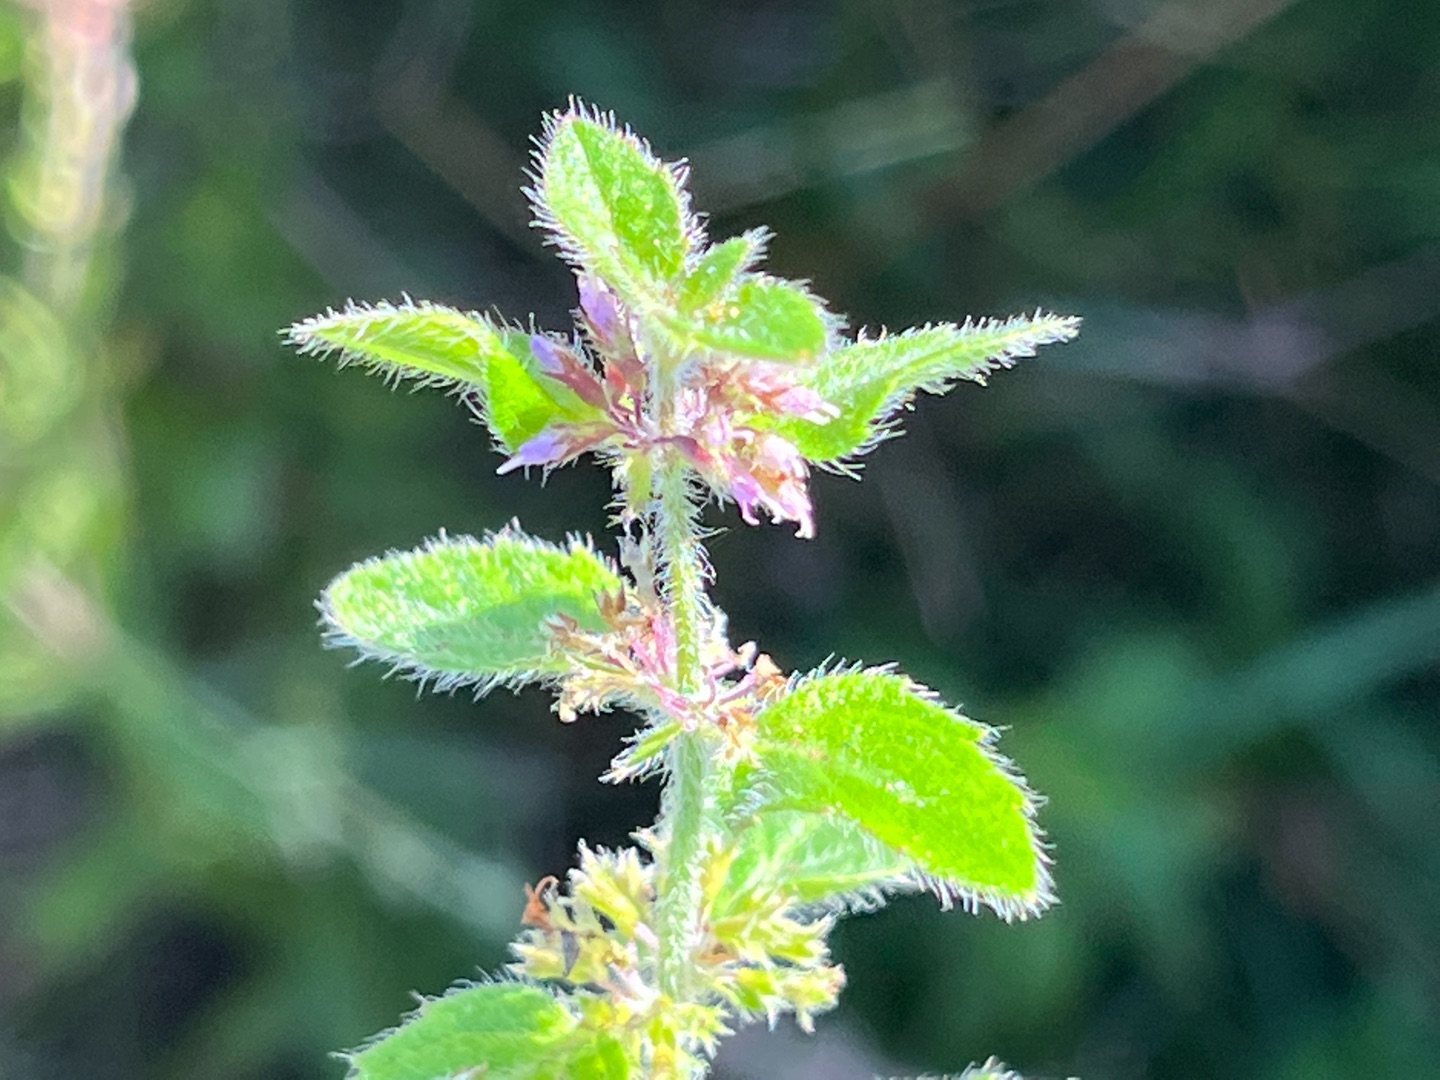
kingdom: Plantae
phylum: Tracheophyta
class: Magnoliopsida
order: Lamiales
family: Lamiaceae
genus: Mentha
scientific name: Mentha verticillata
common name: Krans-mynte
